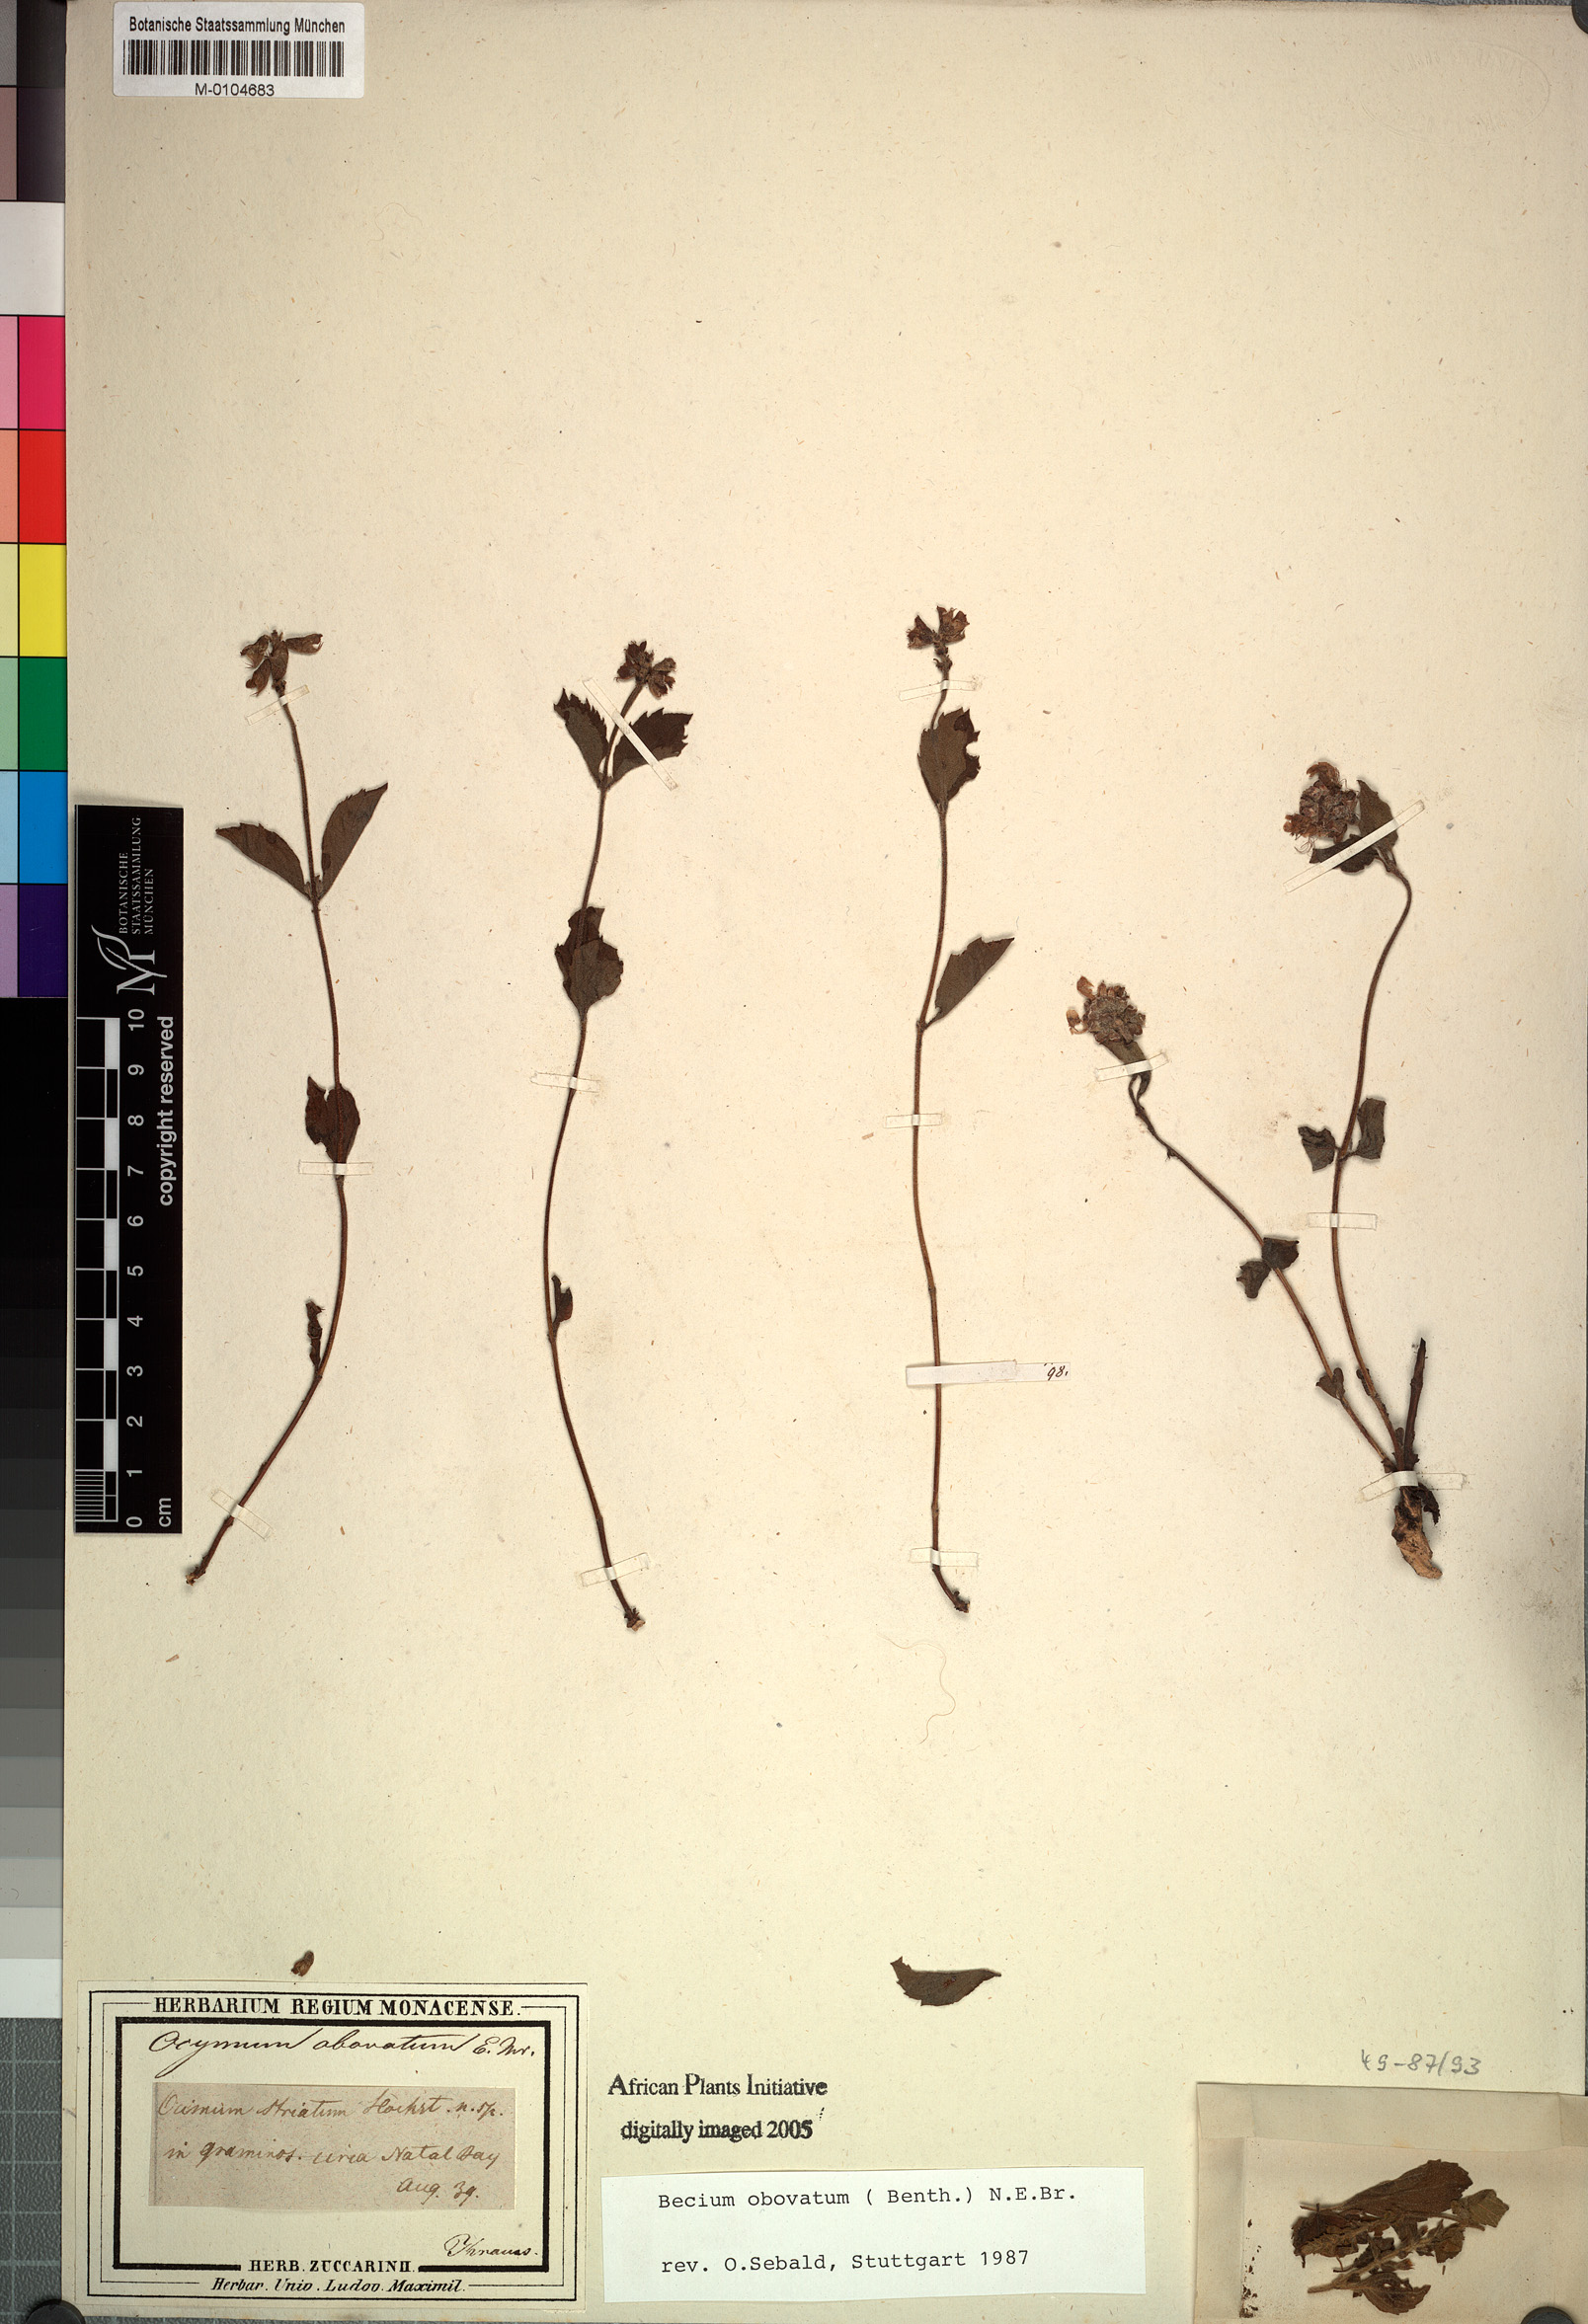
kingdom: Plantae
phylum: Tracheophyta
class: Magnoliopsida
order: Lamiales
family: Lamiaceae
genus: Ocimum
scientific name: Ocimum obovatum
